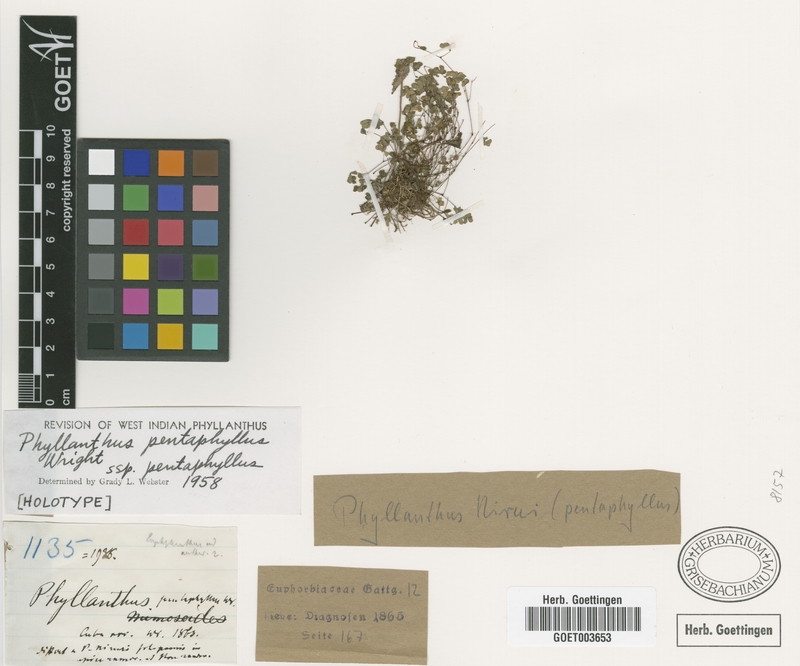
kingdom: Plantae
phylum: Tracheophyta
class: Magnoliopsida
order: Malpighiales
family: Phyllanthaceae
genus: Phyllanthus
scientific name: Phyllanthus pentaphyllus
